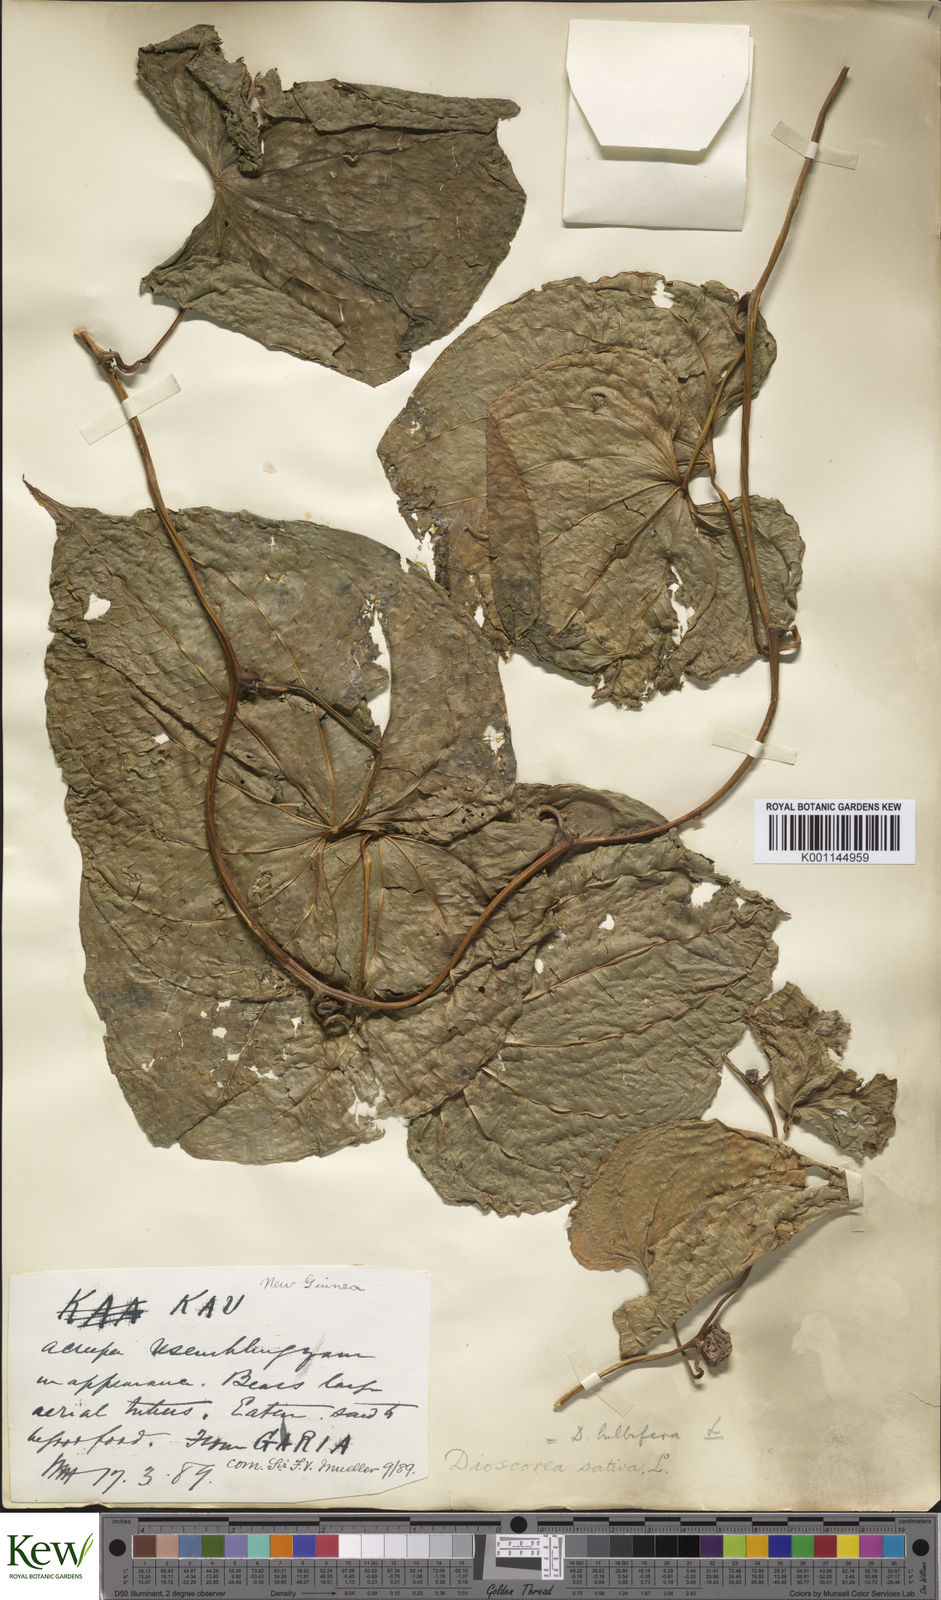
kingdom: Plantae
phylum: Tracheophyta
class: Liliopsida
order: Dioscoreales
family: Dioscoreaceae
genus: Dioscorea
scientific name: Dioscorea bulbifera
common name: Air yam
